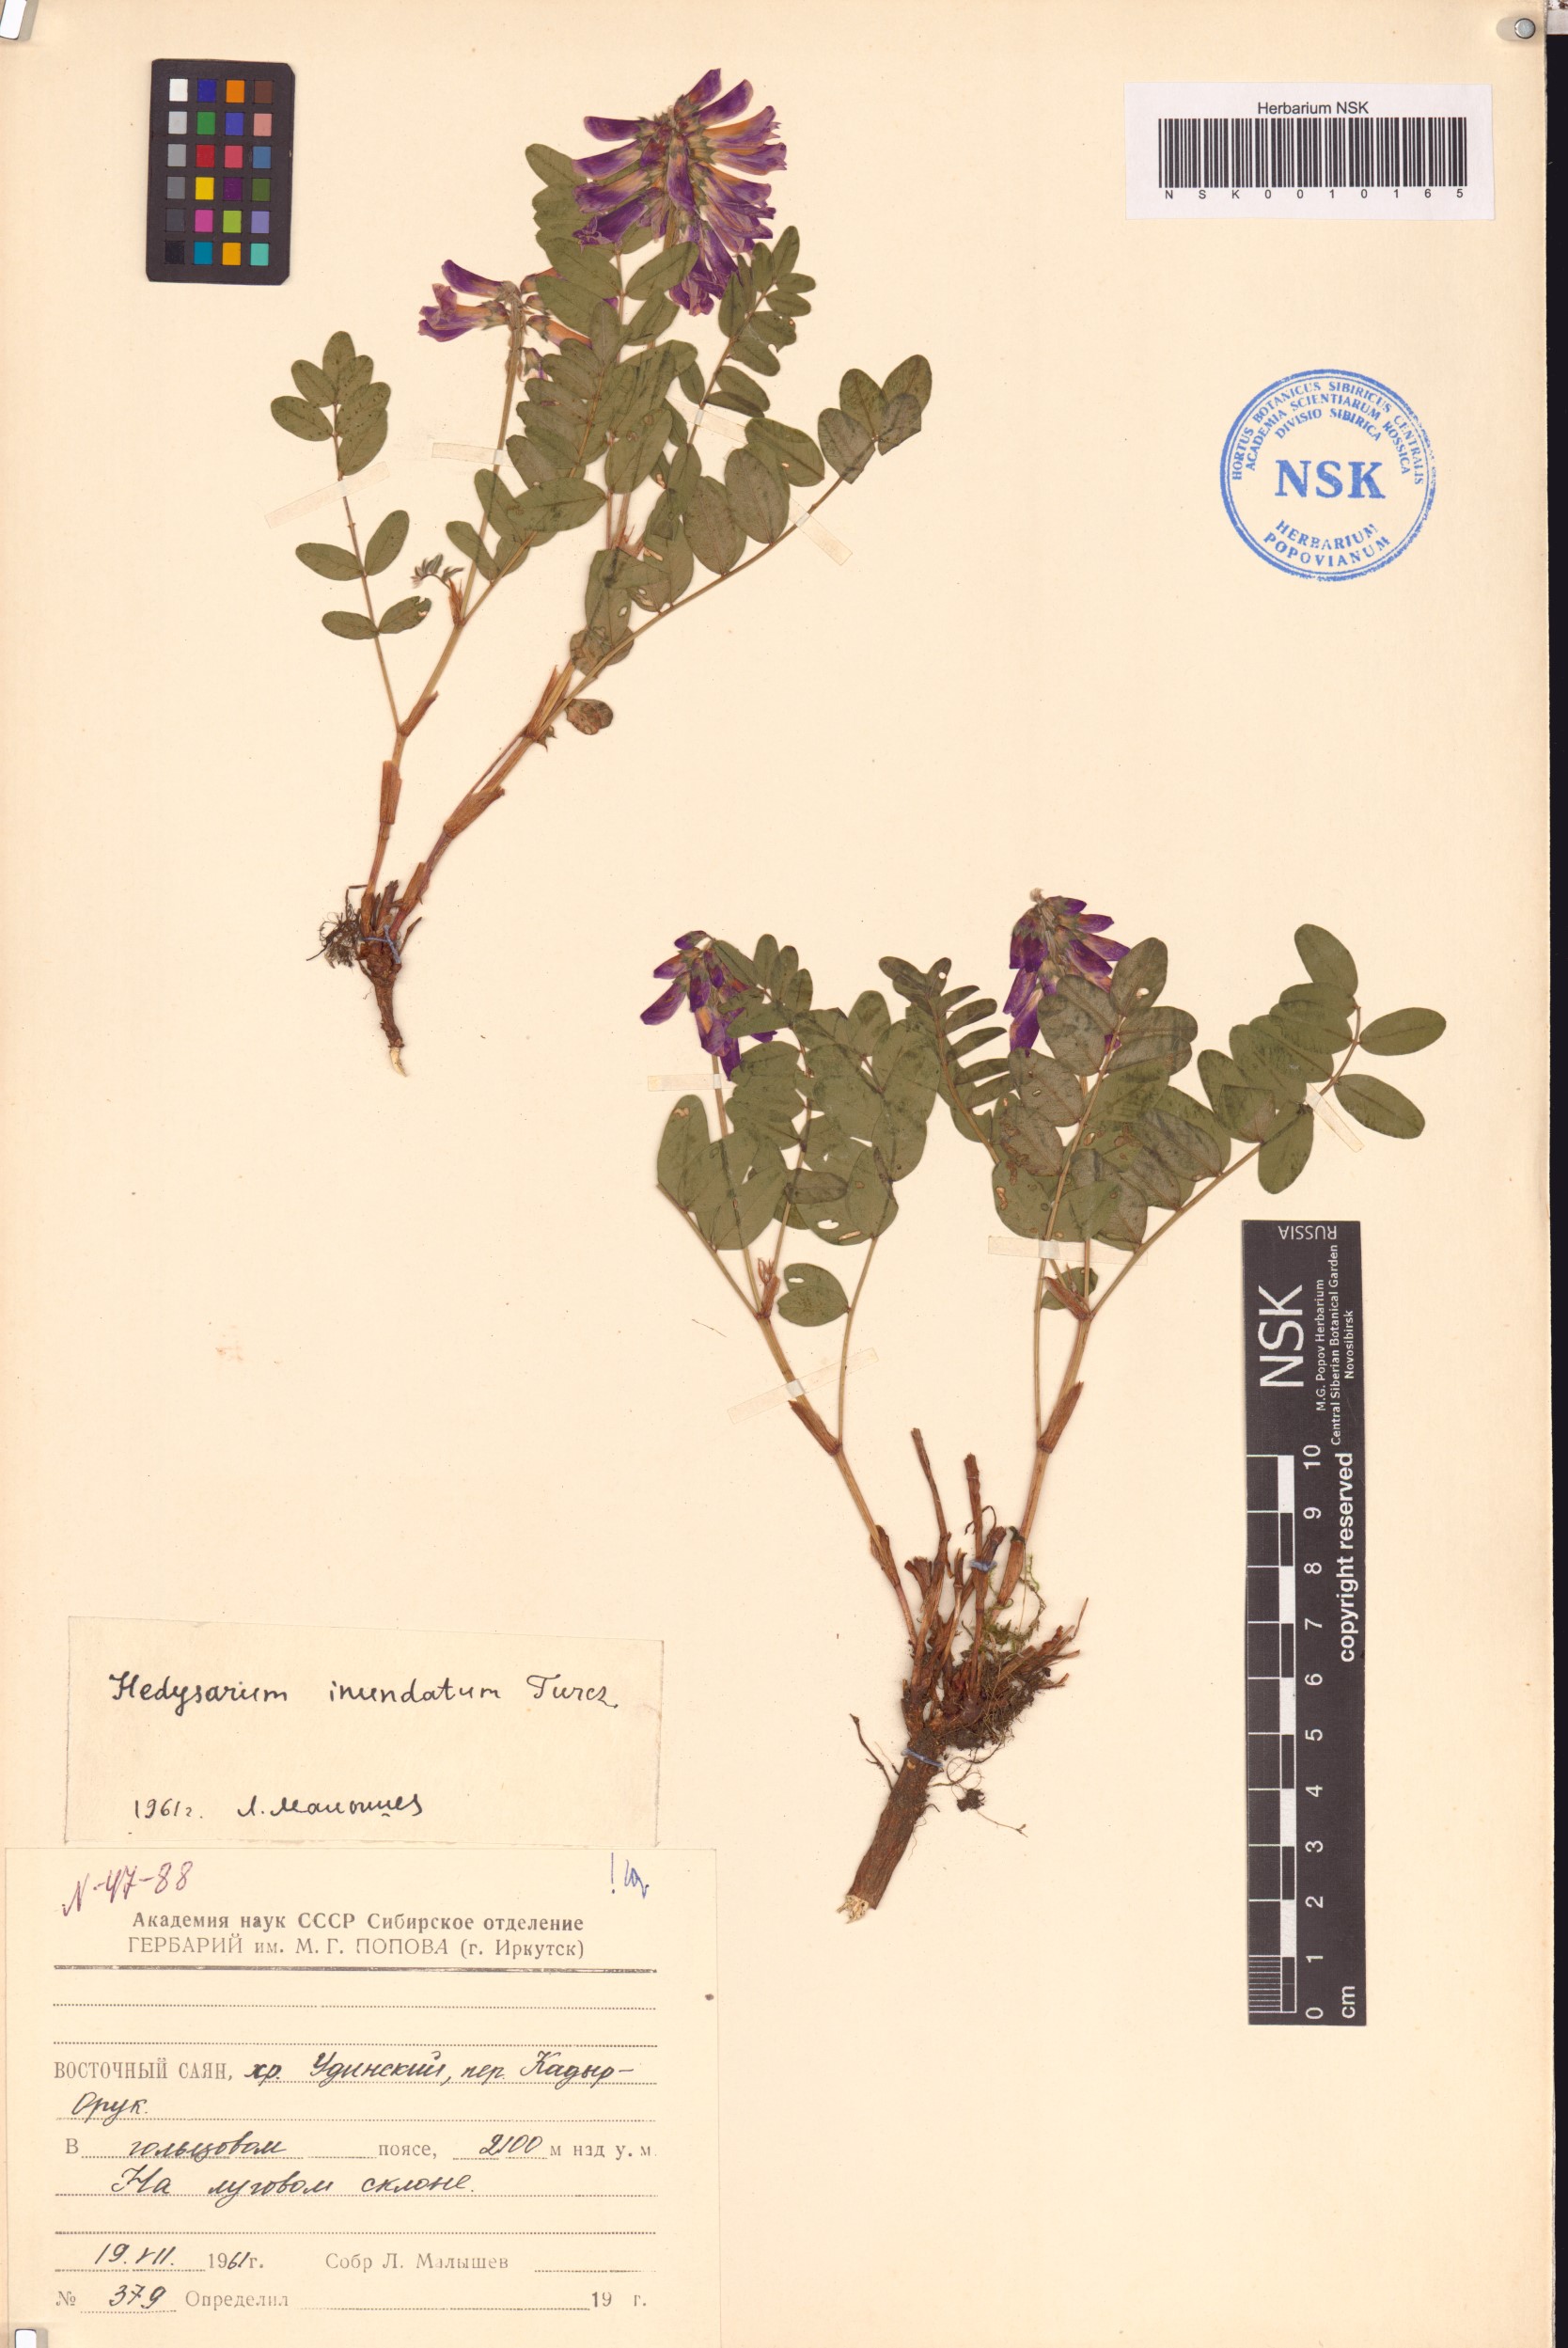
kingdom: Plantae
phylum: Tracheophyta
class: Magnoliopsida
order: Fabales
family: Fabaceae
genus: Hedysarum
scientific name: Hedysarum inundatum
